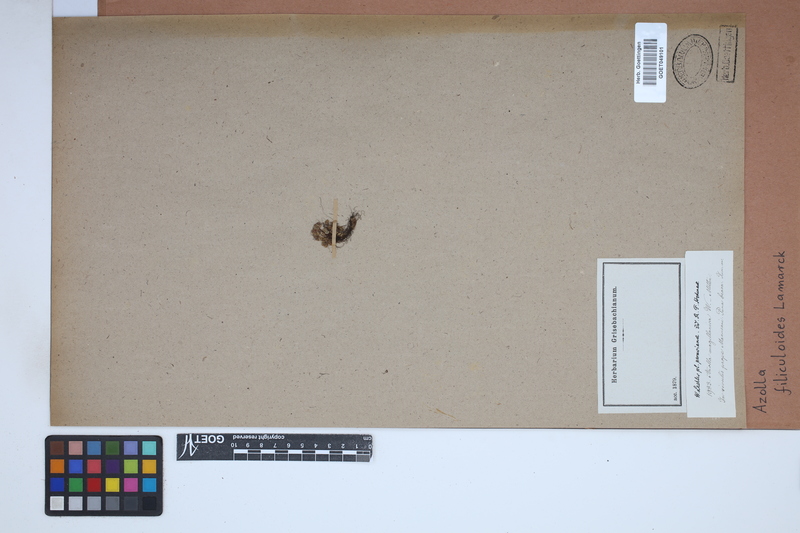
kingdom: Plantae
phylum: Tracheophyta
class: Polypodiopsida
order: Salviniales
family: Salviniaceae
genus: Azolla
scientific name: Azolla filiculoides
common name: Water fern
